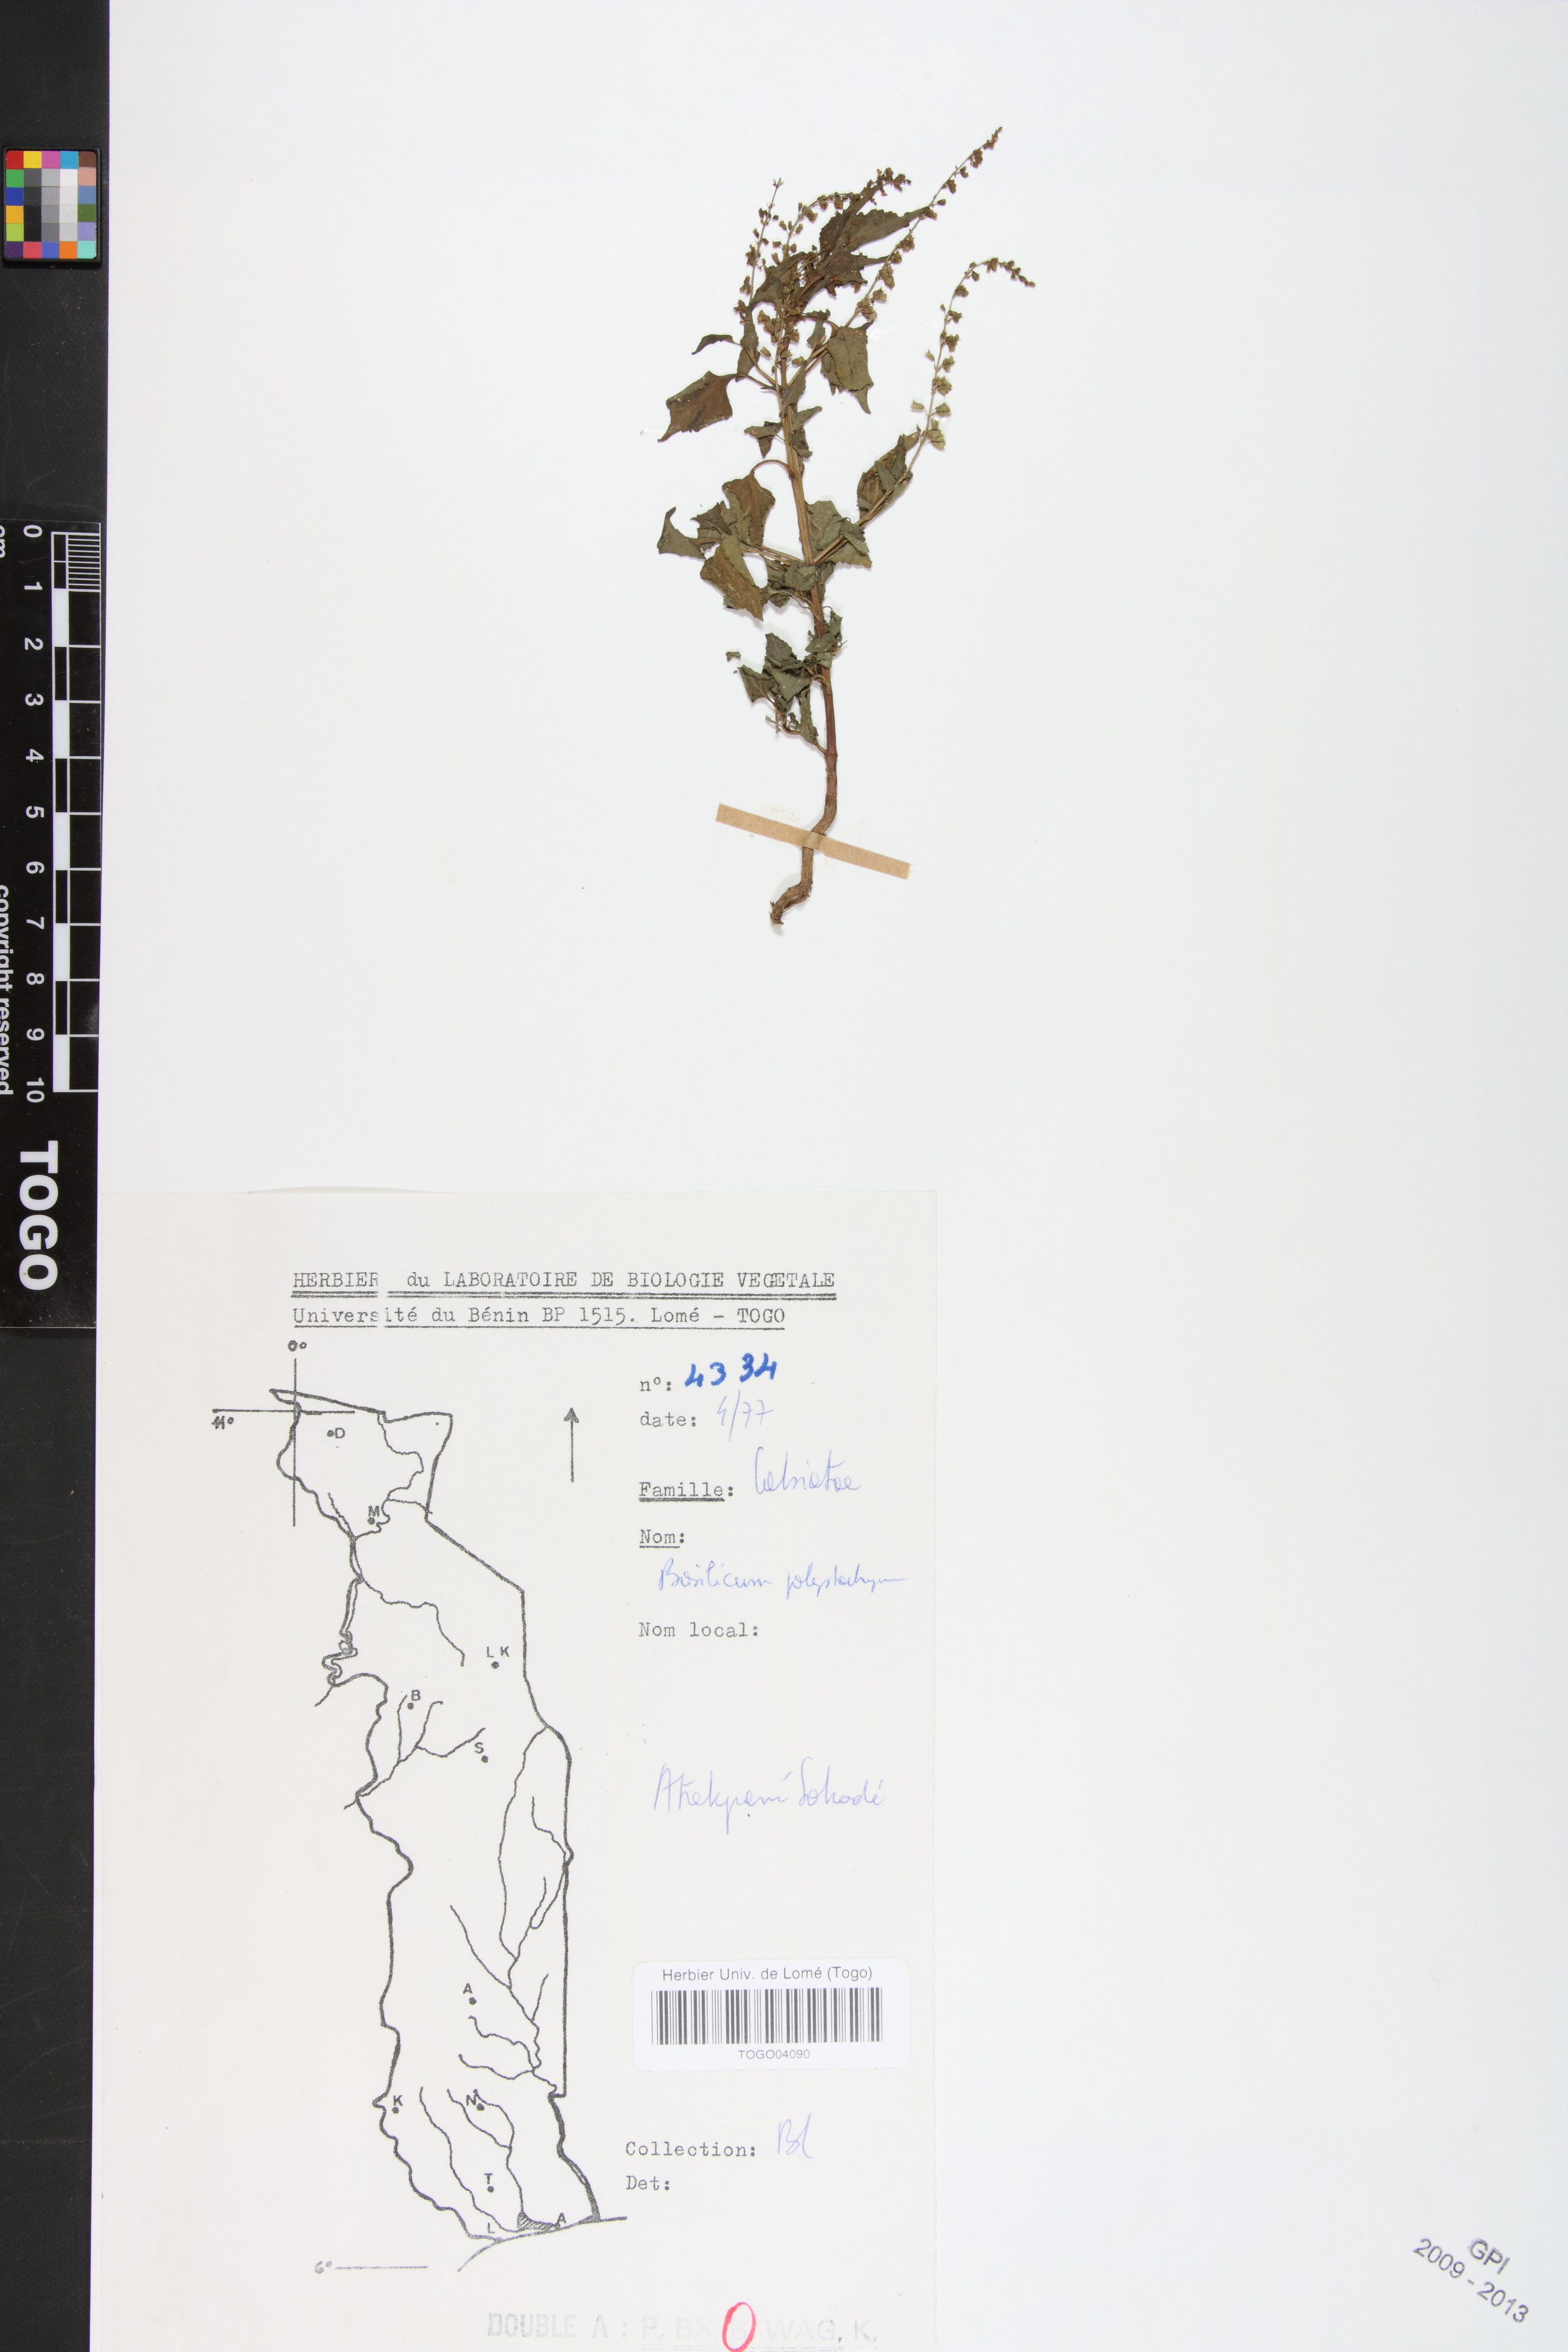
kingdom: Plantae
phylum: Tracheophyta
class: Magnoliopsida
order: Lamiales
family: Lamiaceae
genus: Basilicum
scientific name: Basilicum polystachyon
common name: Musk-basil
